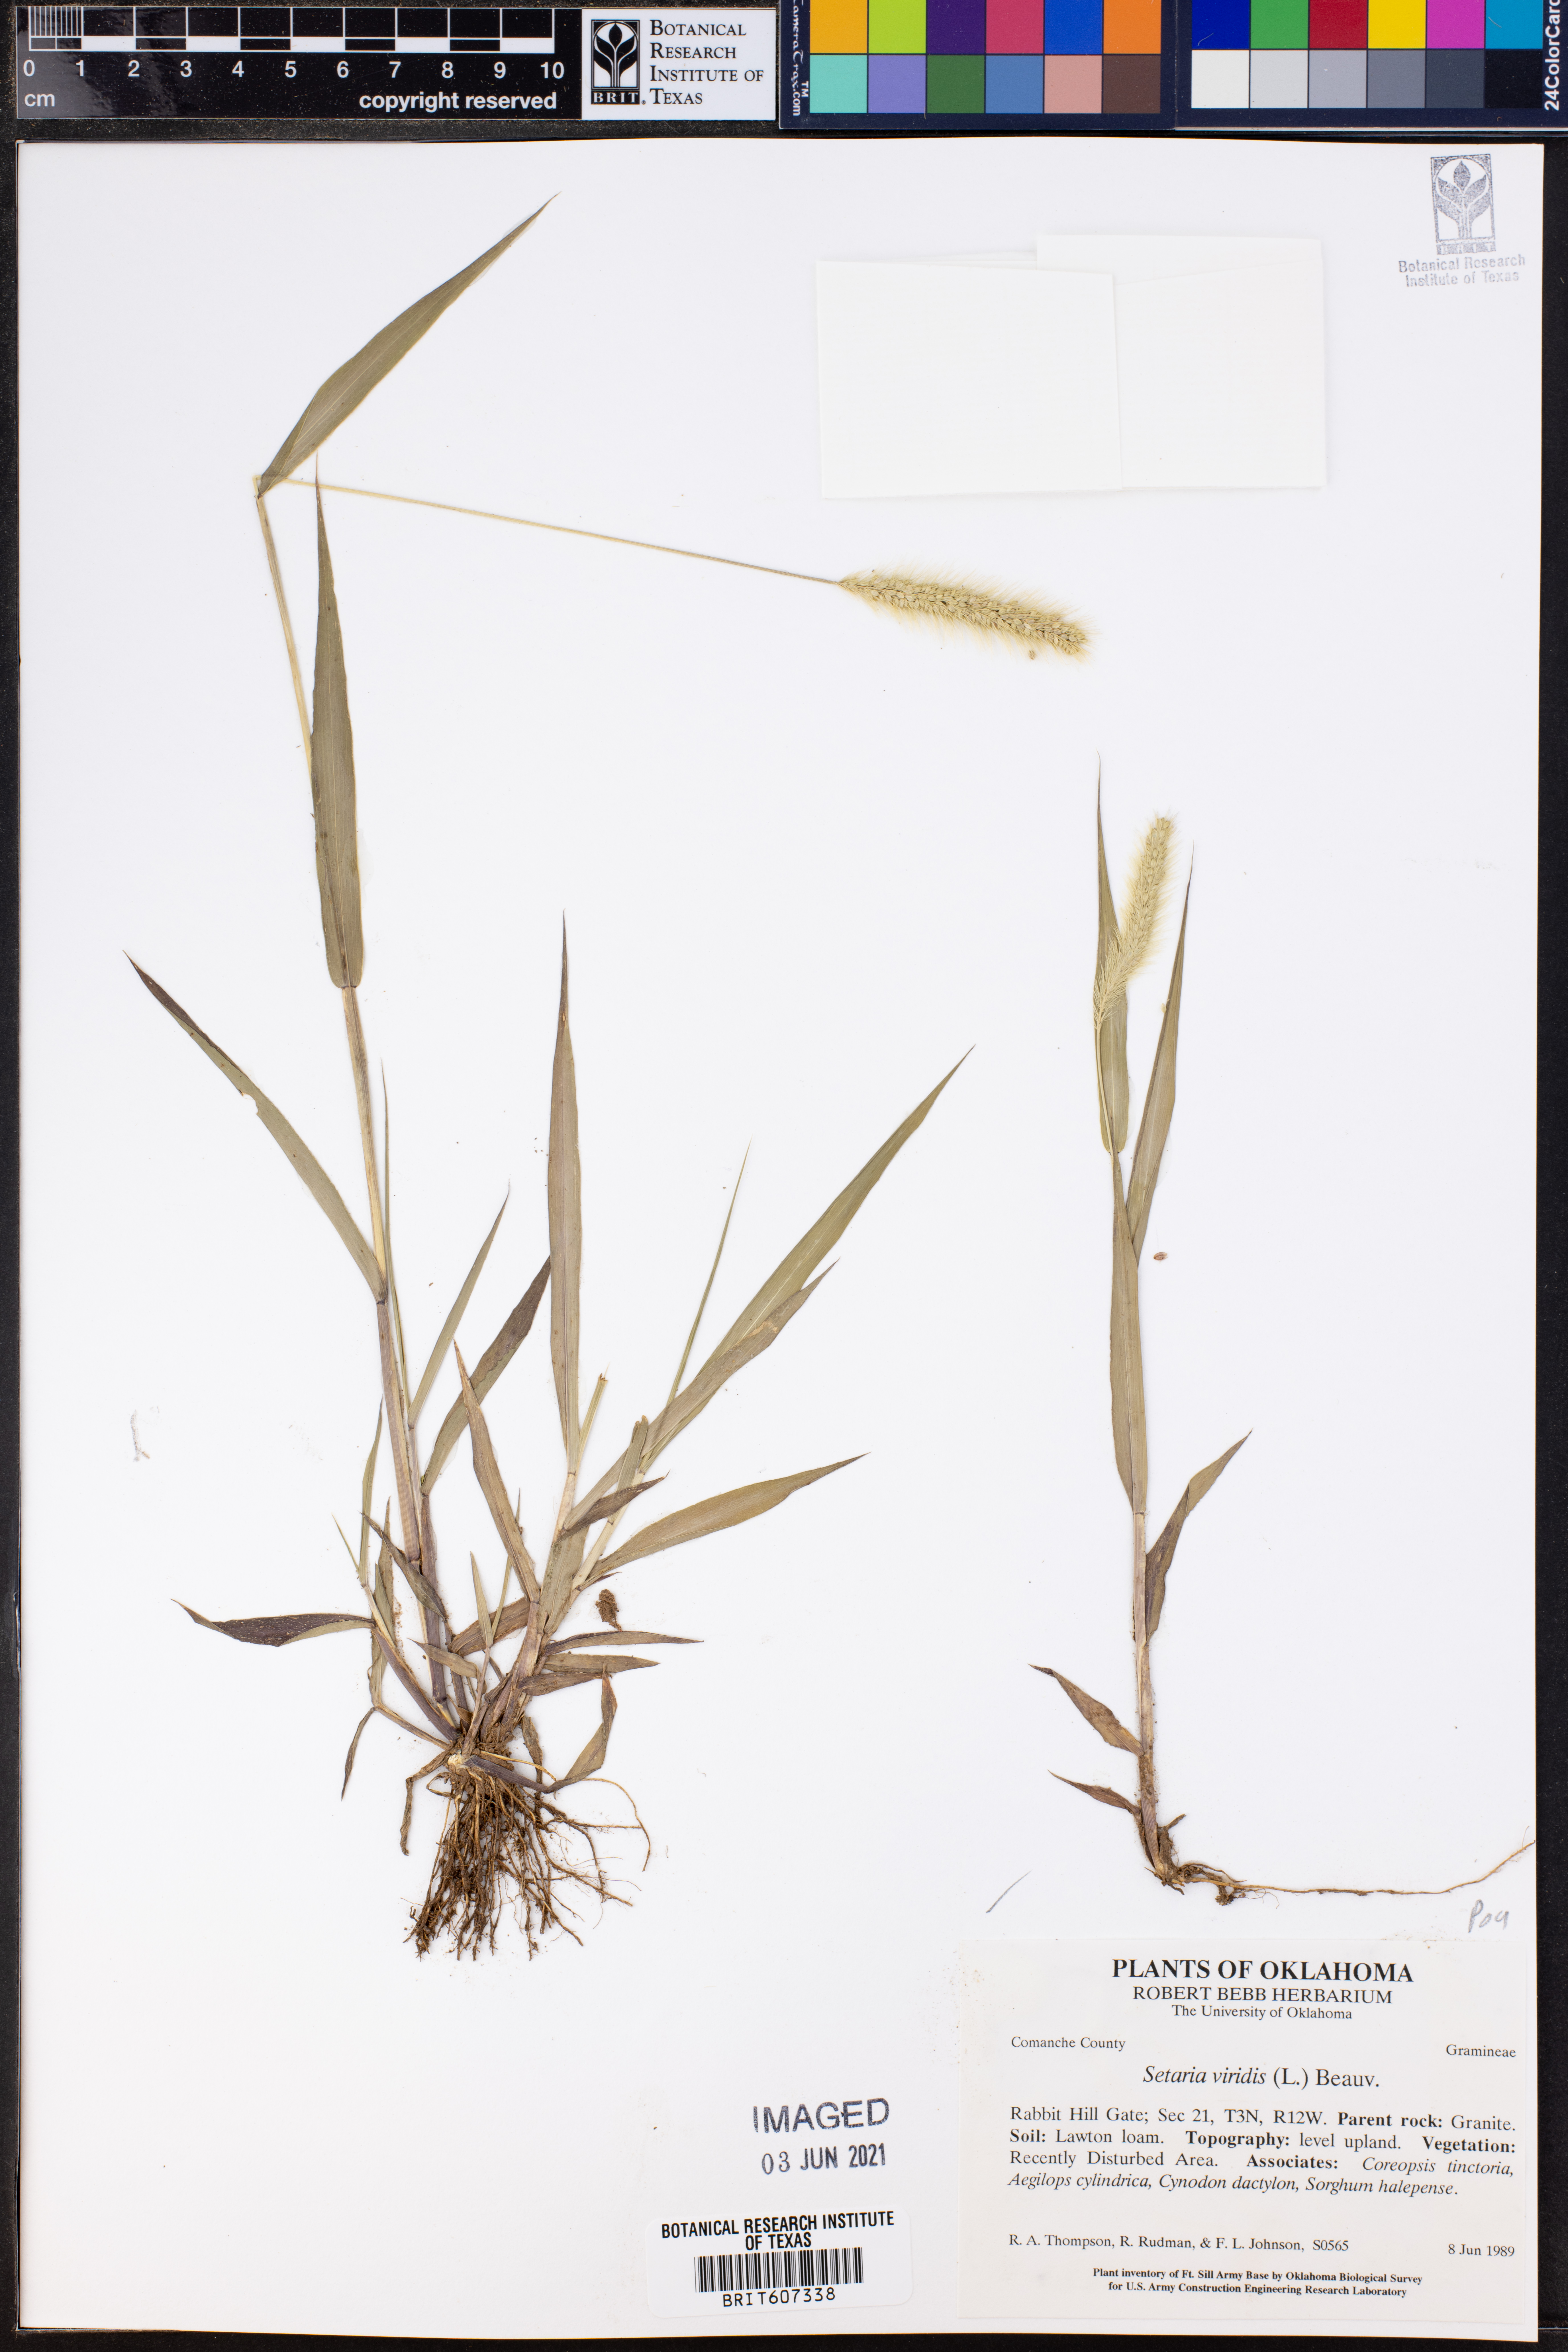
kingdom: Plantae
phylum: Tracheophyta
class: Liliopsida
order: Poales
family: Poaceae
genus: Setaria
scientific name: Setaria viridis
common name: Green bristlegrass
